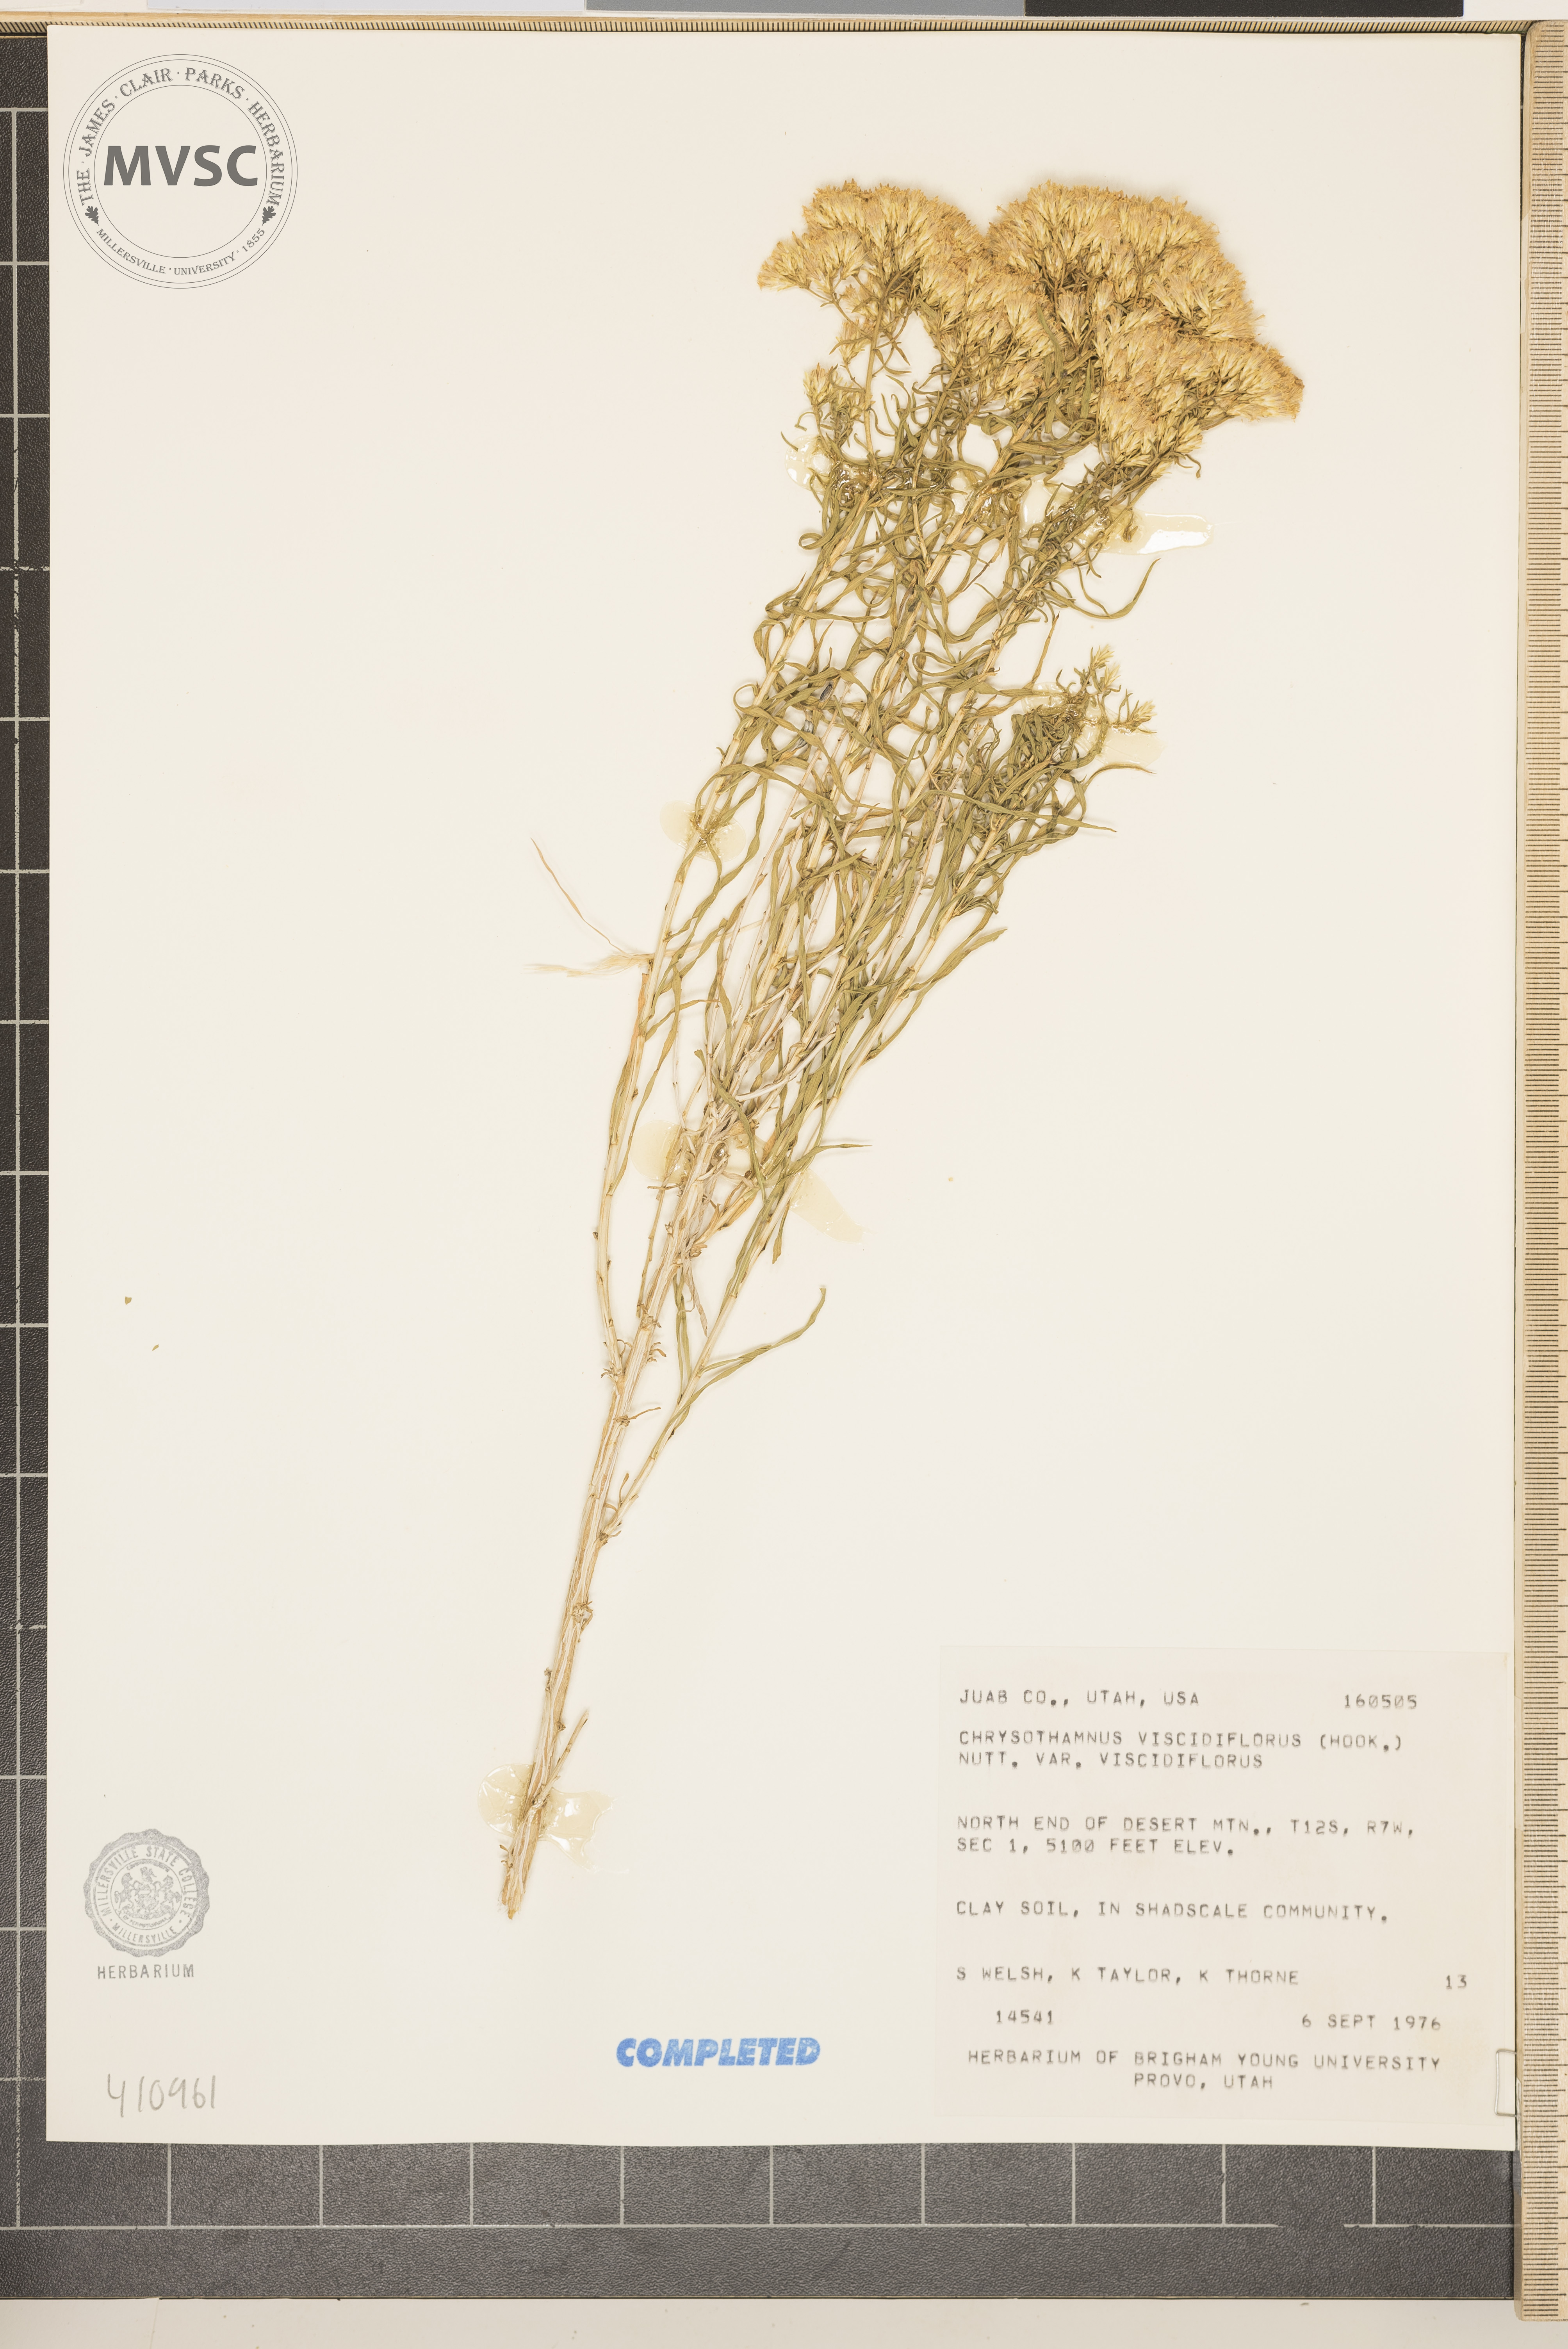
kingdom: Plantae
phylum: Tracheophyta
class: Magnoliopsida
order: Asterales
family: Asteraceae
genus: Chrysothamnus
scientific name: Chrysothamnus viscidiflorus
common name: Yellow rabbitbrush
